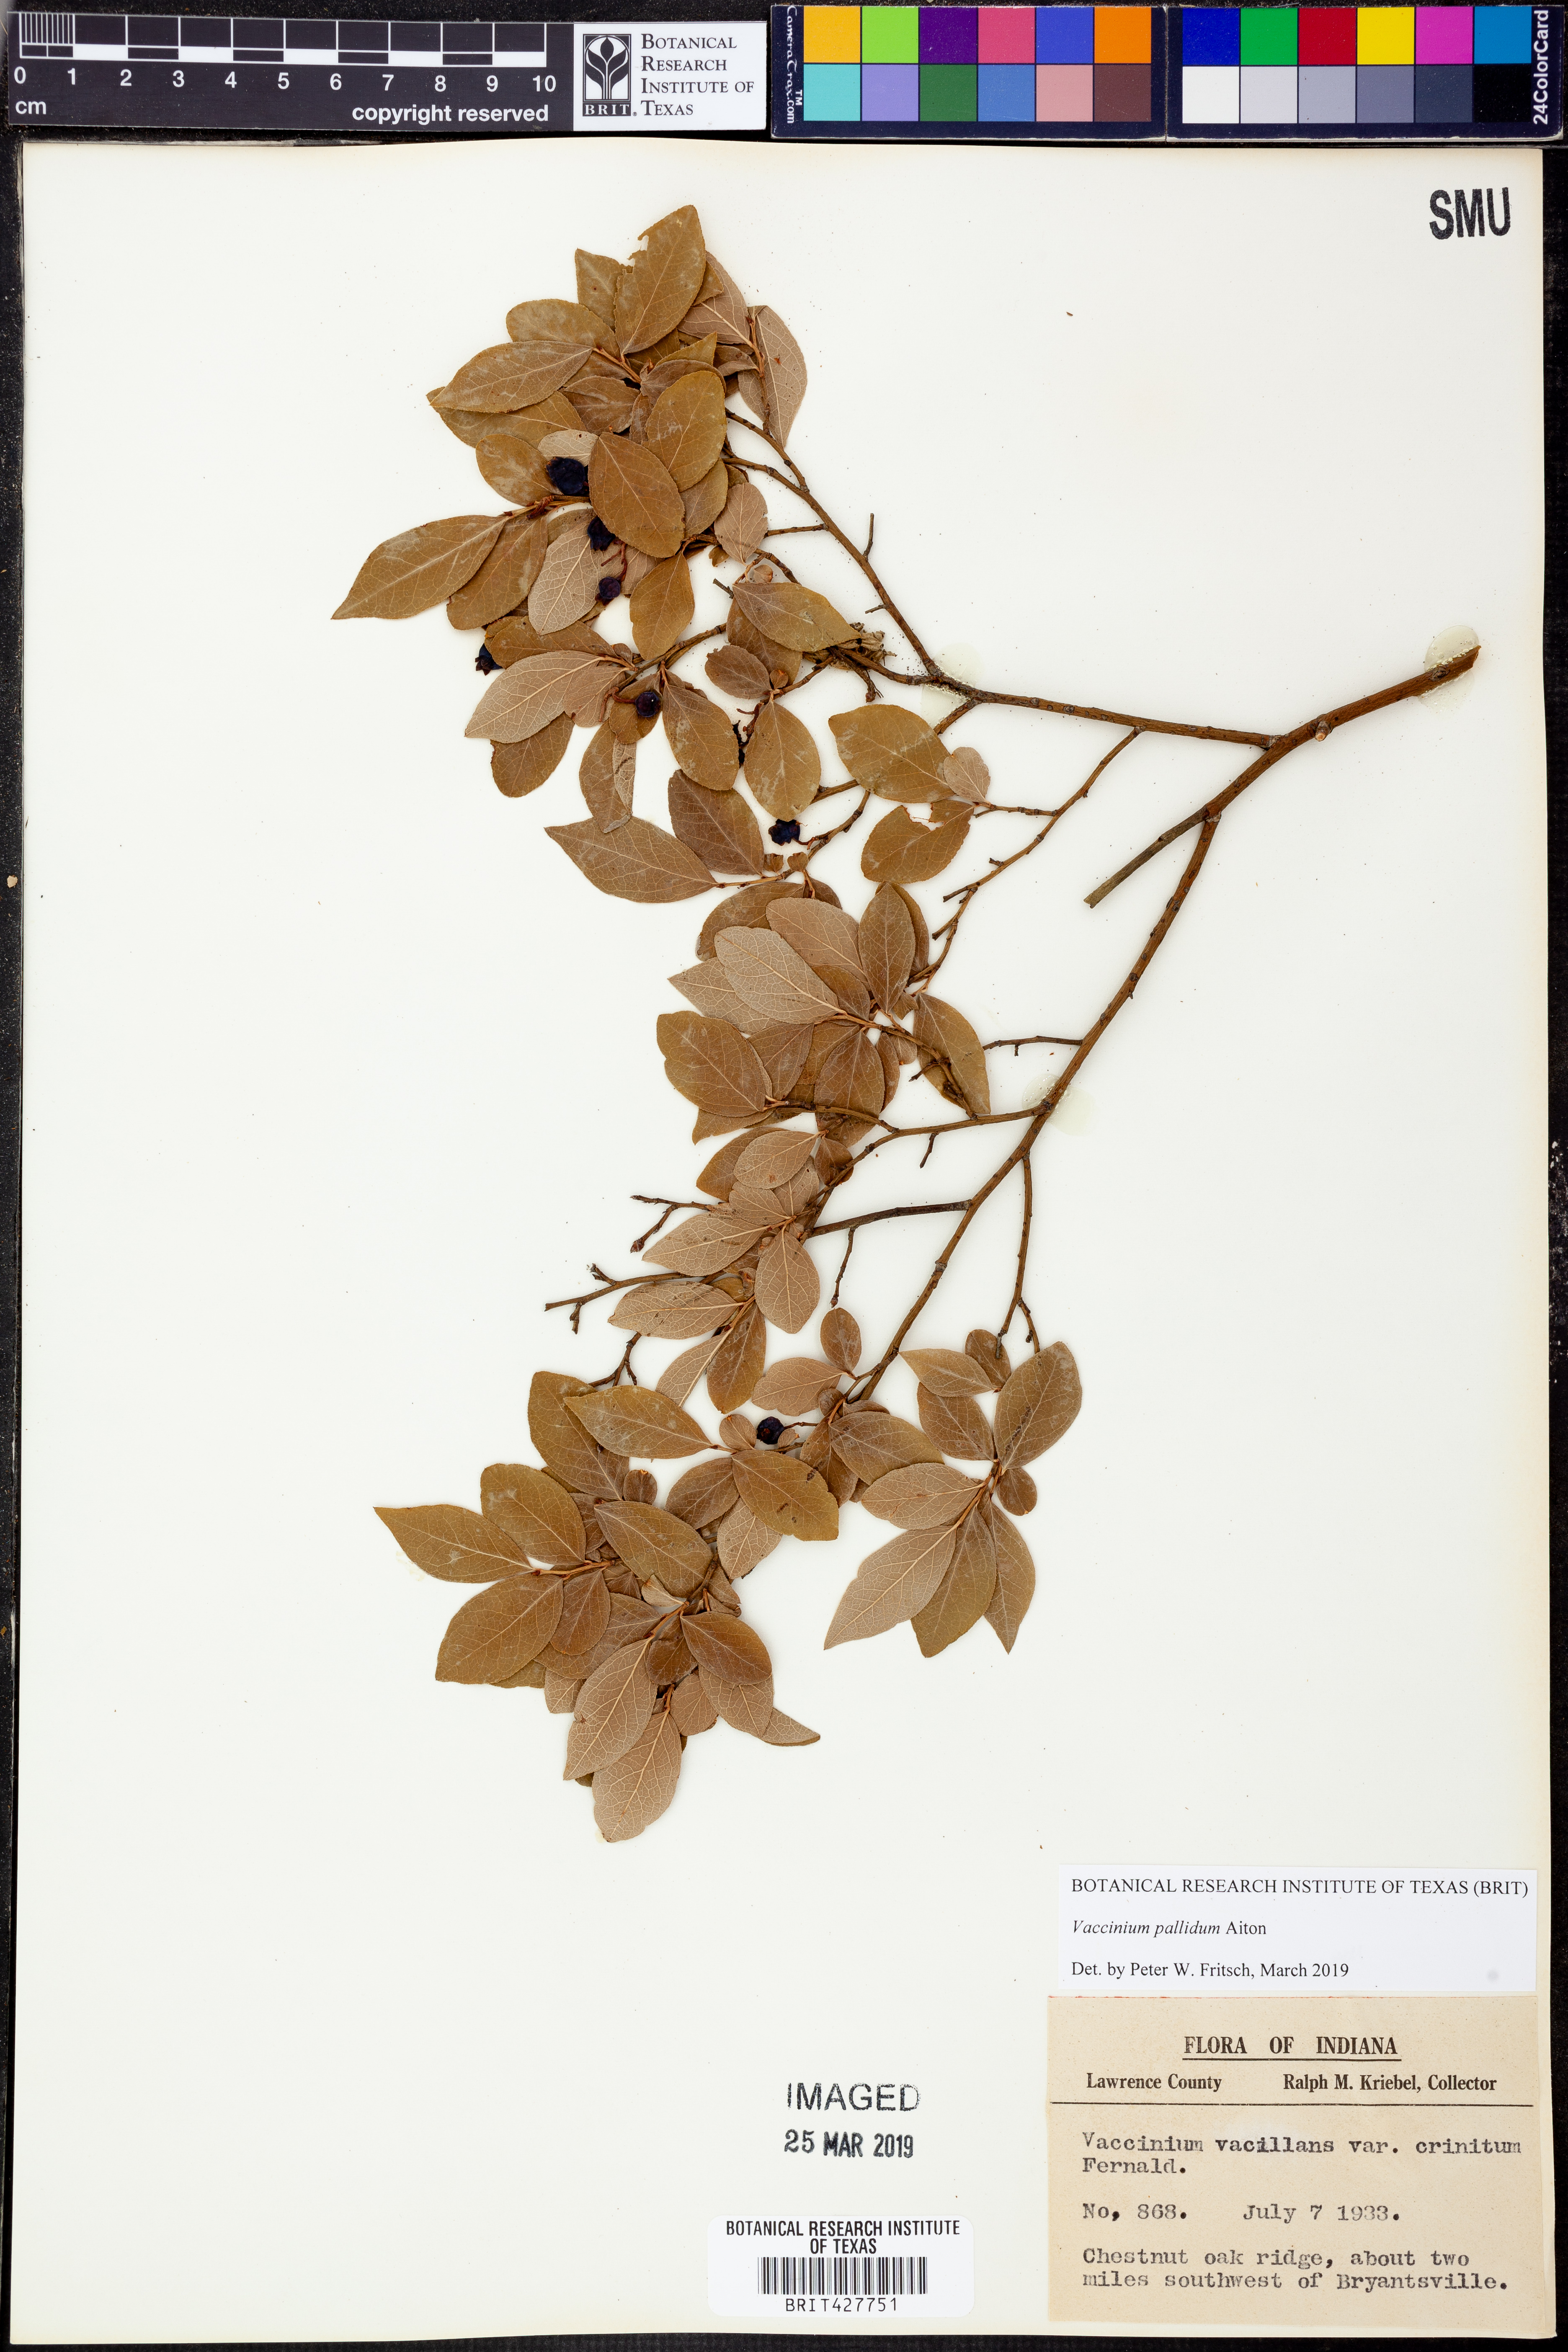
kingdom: Plantae
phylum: Tracheophyta
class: Magnoliopsida
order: Ericales
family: Ericaceae
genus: Vaccinium
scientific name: Vaccinium pallidum
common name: Blue ridge blueberry
